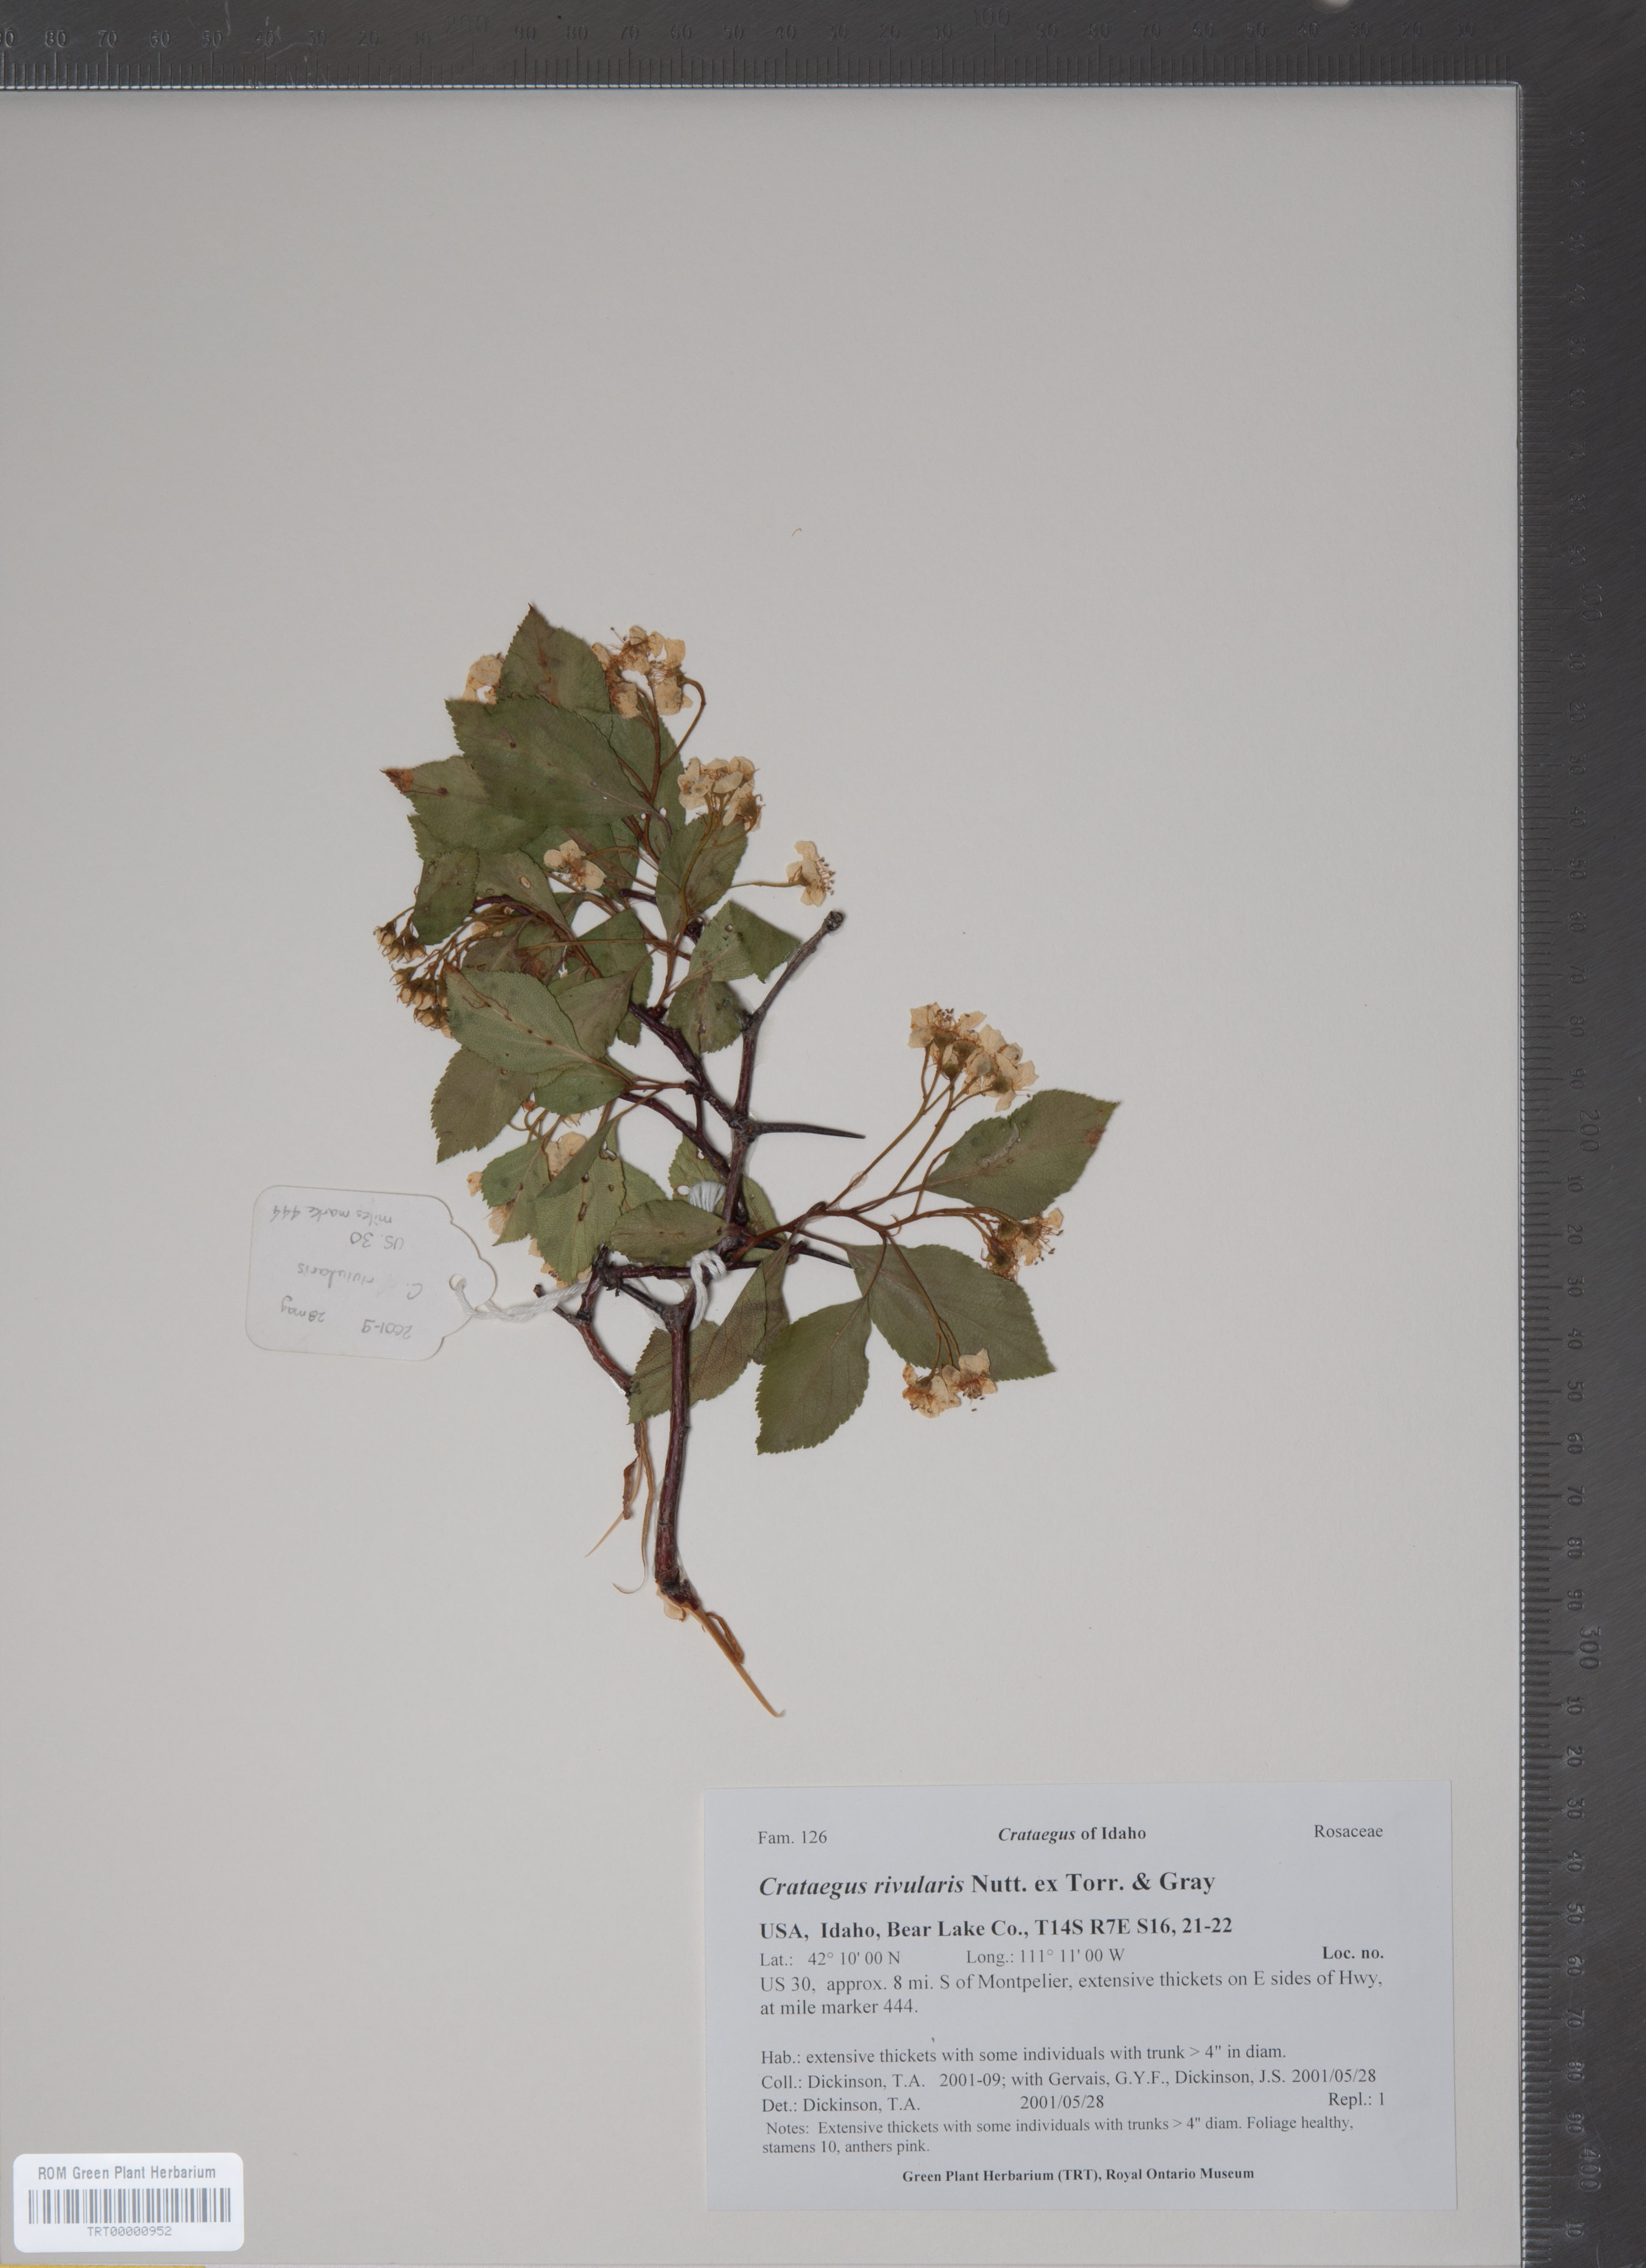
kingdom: Plantae
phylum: Tracheophyta
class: Magnoliopsida
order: Rosales
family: Rosaceae
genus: Crataegus
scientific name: Crataegus rivularis
